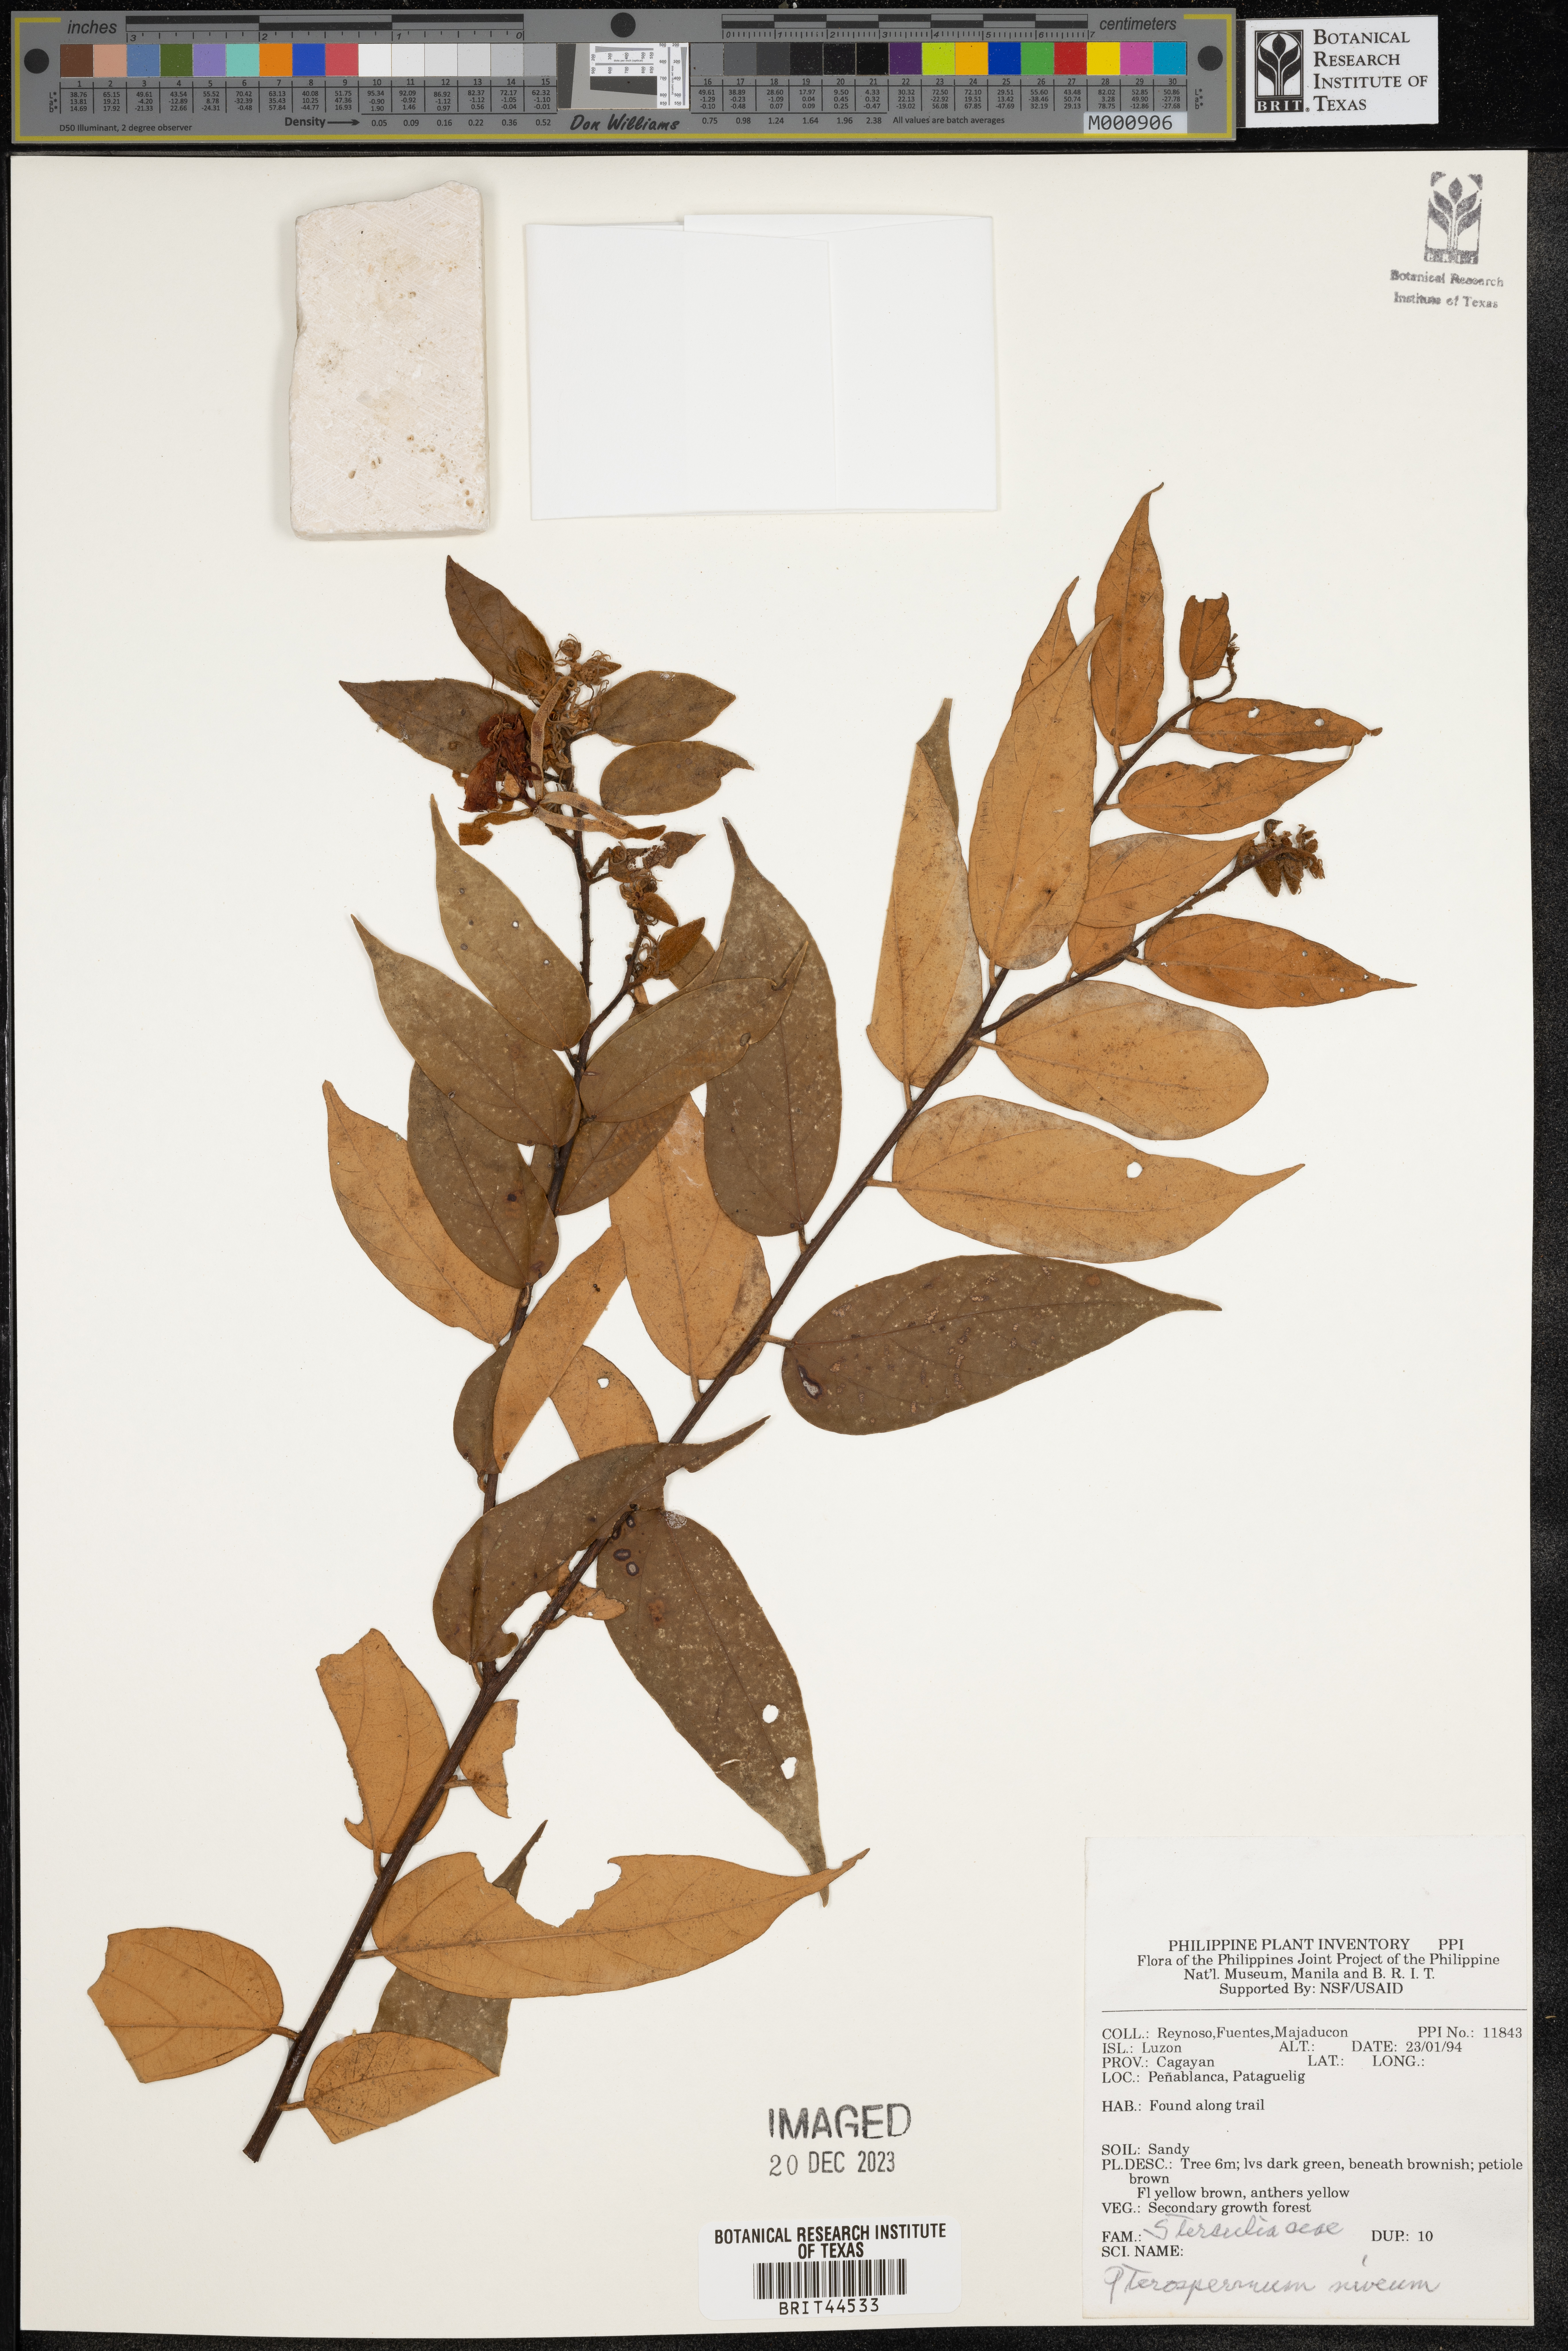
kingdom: Plantae
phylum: Tracheophyta
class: Magnoliopsida
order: Malvales
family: Malvaceae
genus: Pterospermum
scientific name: Pterospermum niveum
